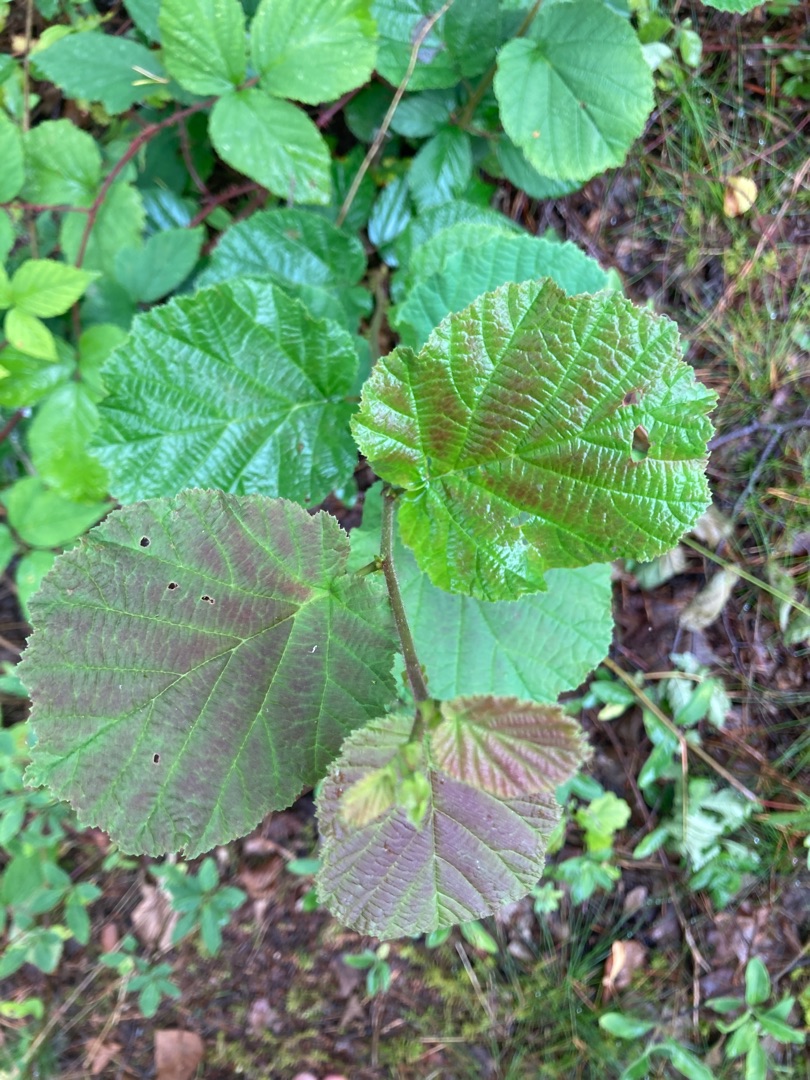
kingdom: Plantae
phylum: Tracheophyta
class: Magnoliopsida
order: Fagales
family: Betulaceae
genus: Corylus
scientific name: Corylus avellana
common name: Hassel
